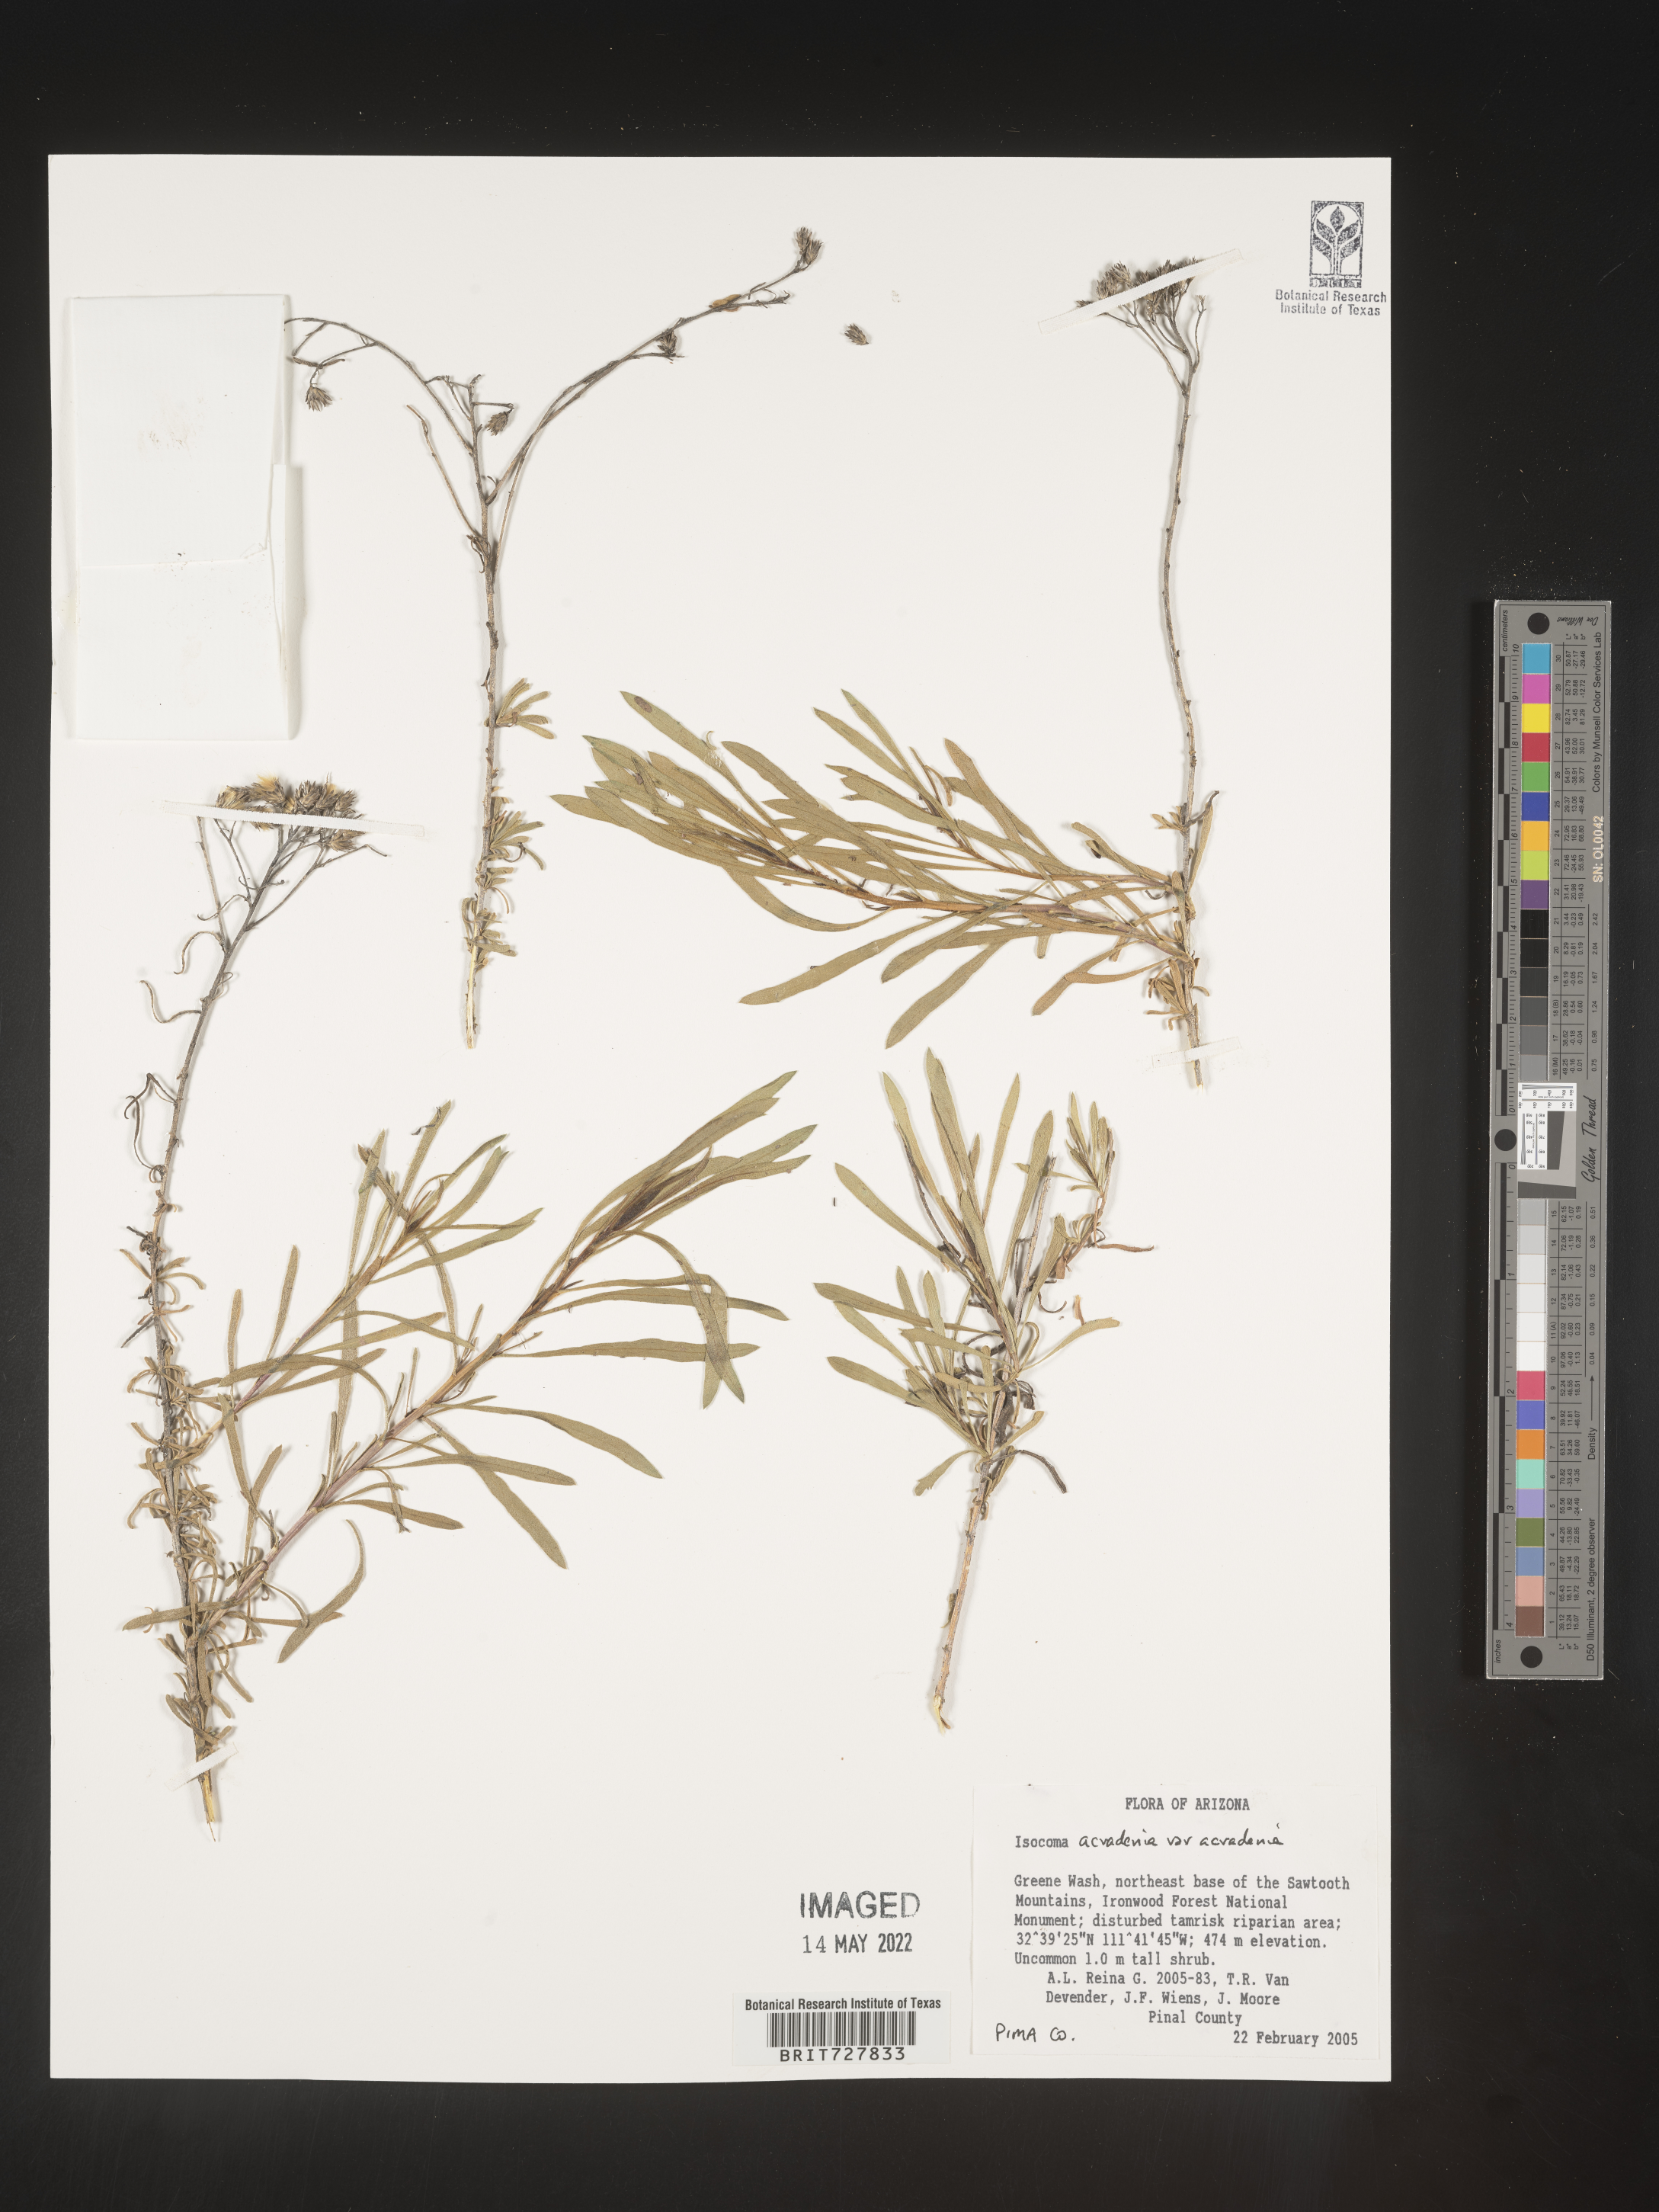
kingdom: Plantae
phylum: Tracheophyta
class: Magnoliopsida
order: Asterales
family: Asteraceae
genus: Isocoma
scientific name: Isocoma acradenia
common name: Alkali jimmyweed
